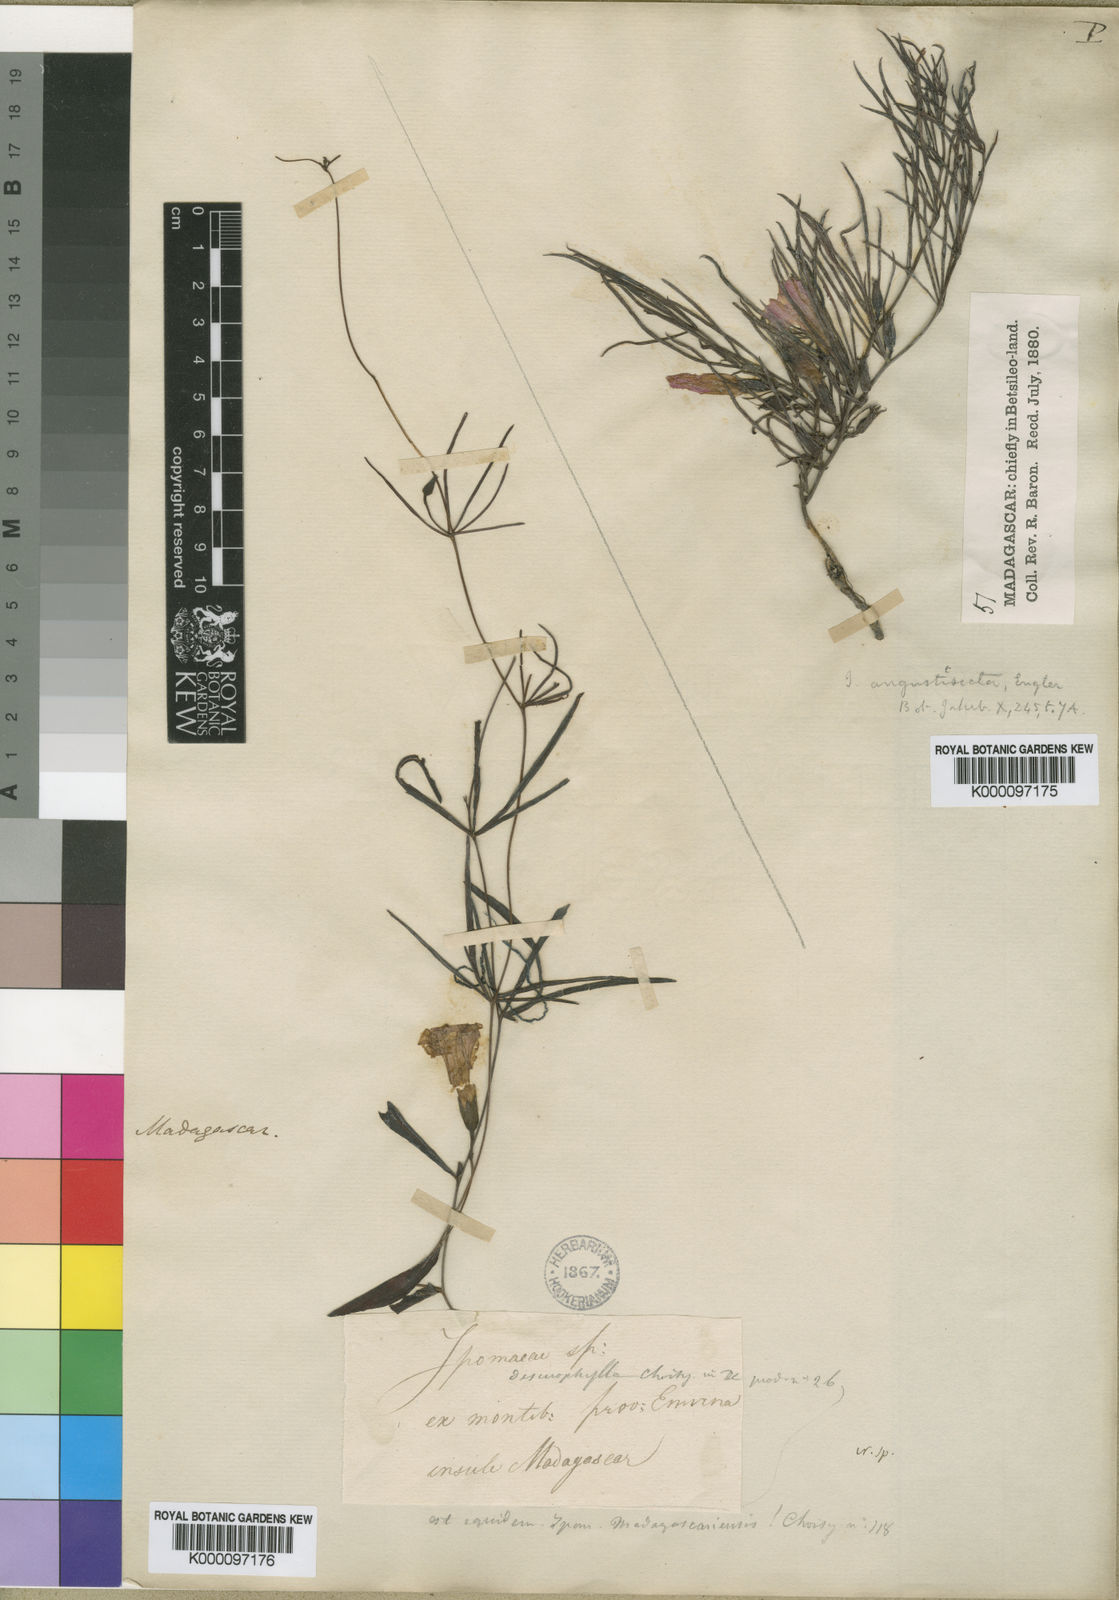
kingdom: Plantae
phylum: Tracheophyta
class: Magnoliopsida
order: Solanales
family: Convolvulaceae
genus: Ipomoea
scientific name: Ipomoea desmophylla
